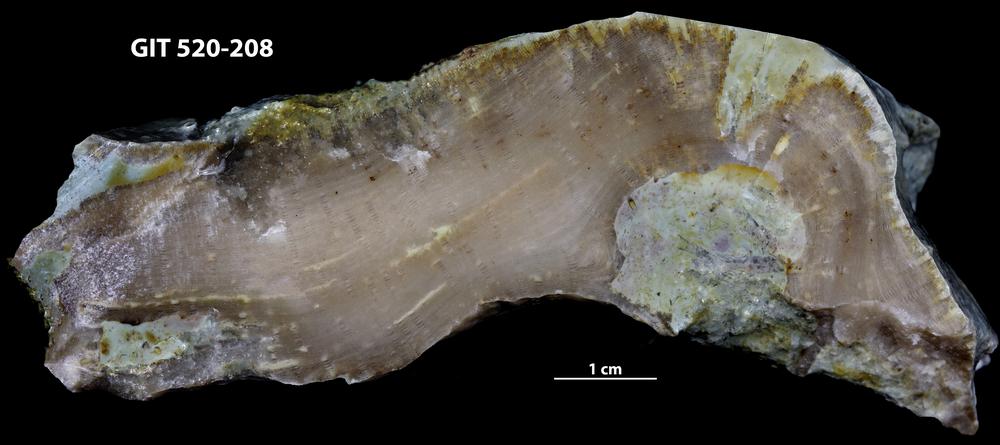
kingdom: Animalia
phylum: Cnidaria
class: Anthozoa
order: Heliolitina
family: Stelliporellidae
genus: Stelliporella
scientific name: Stelliporella
